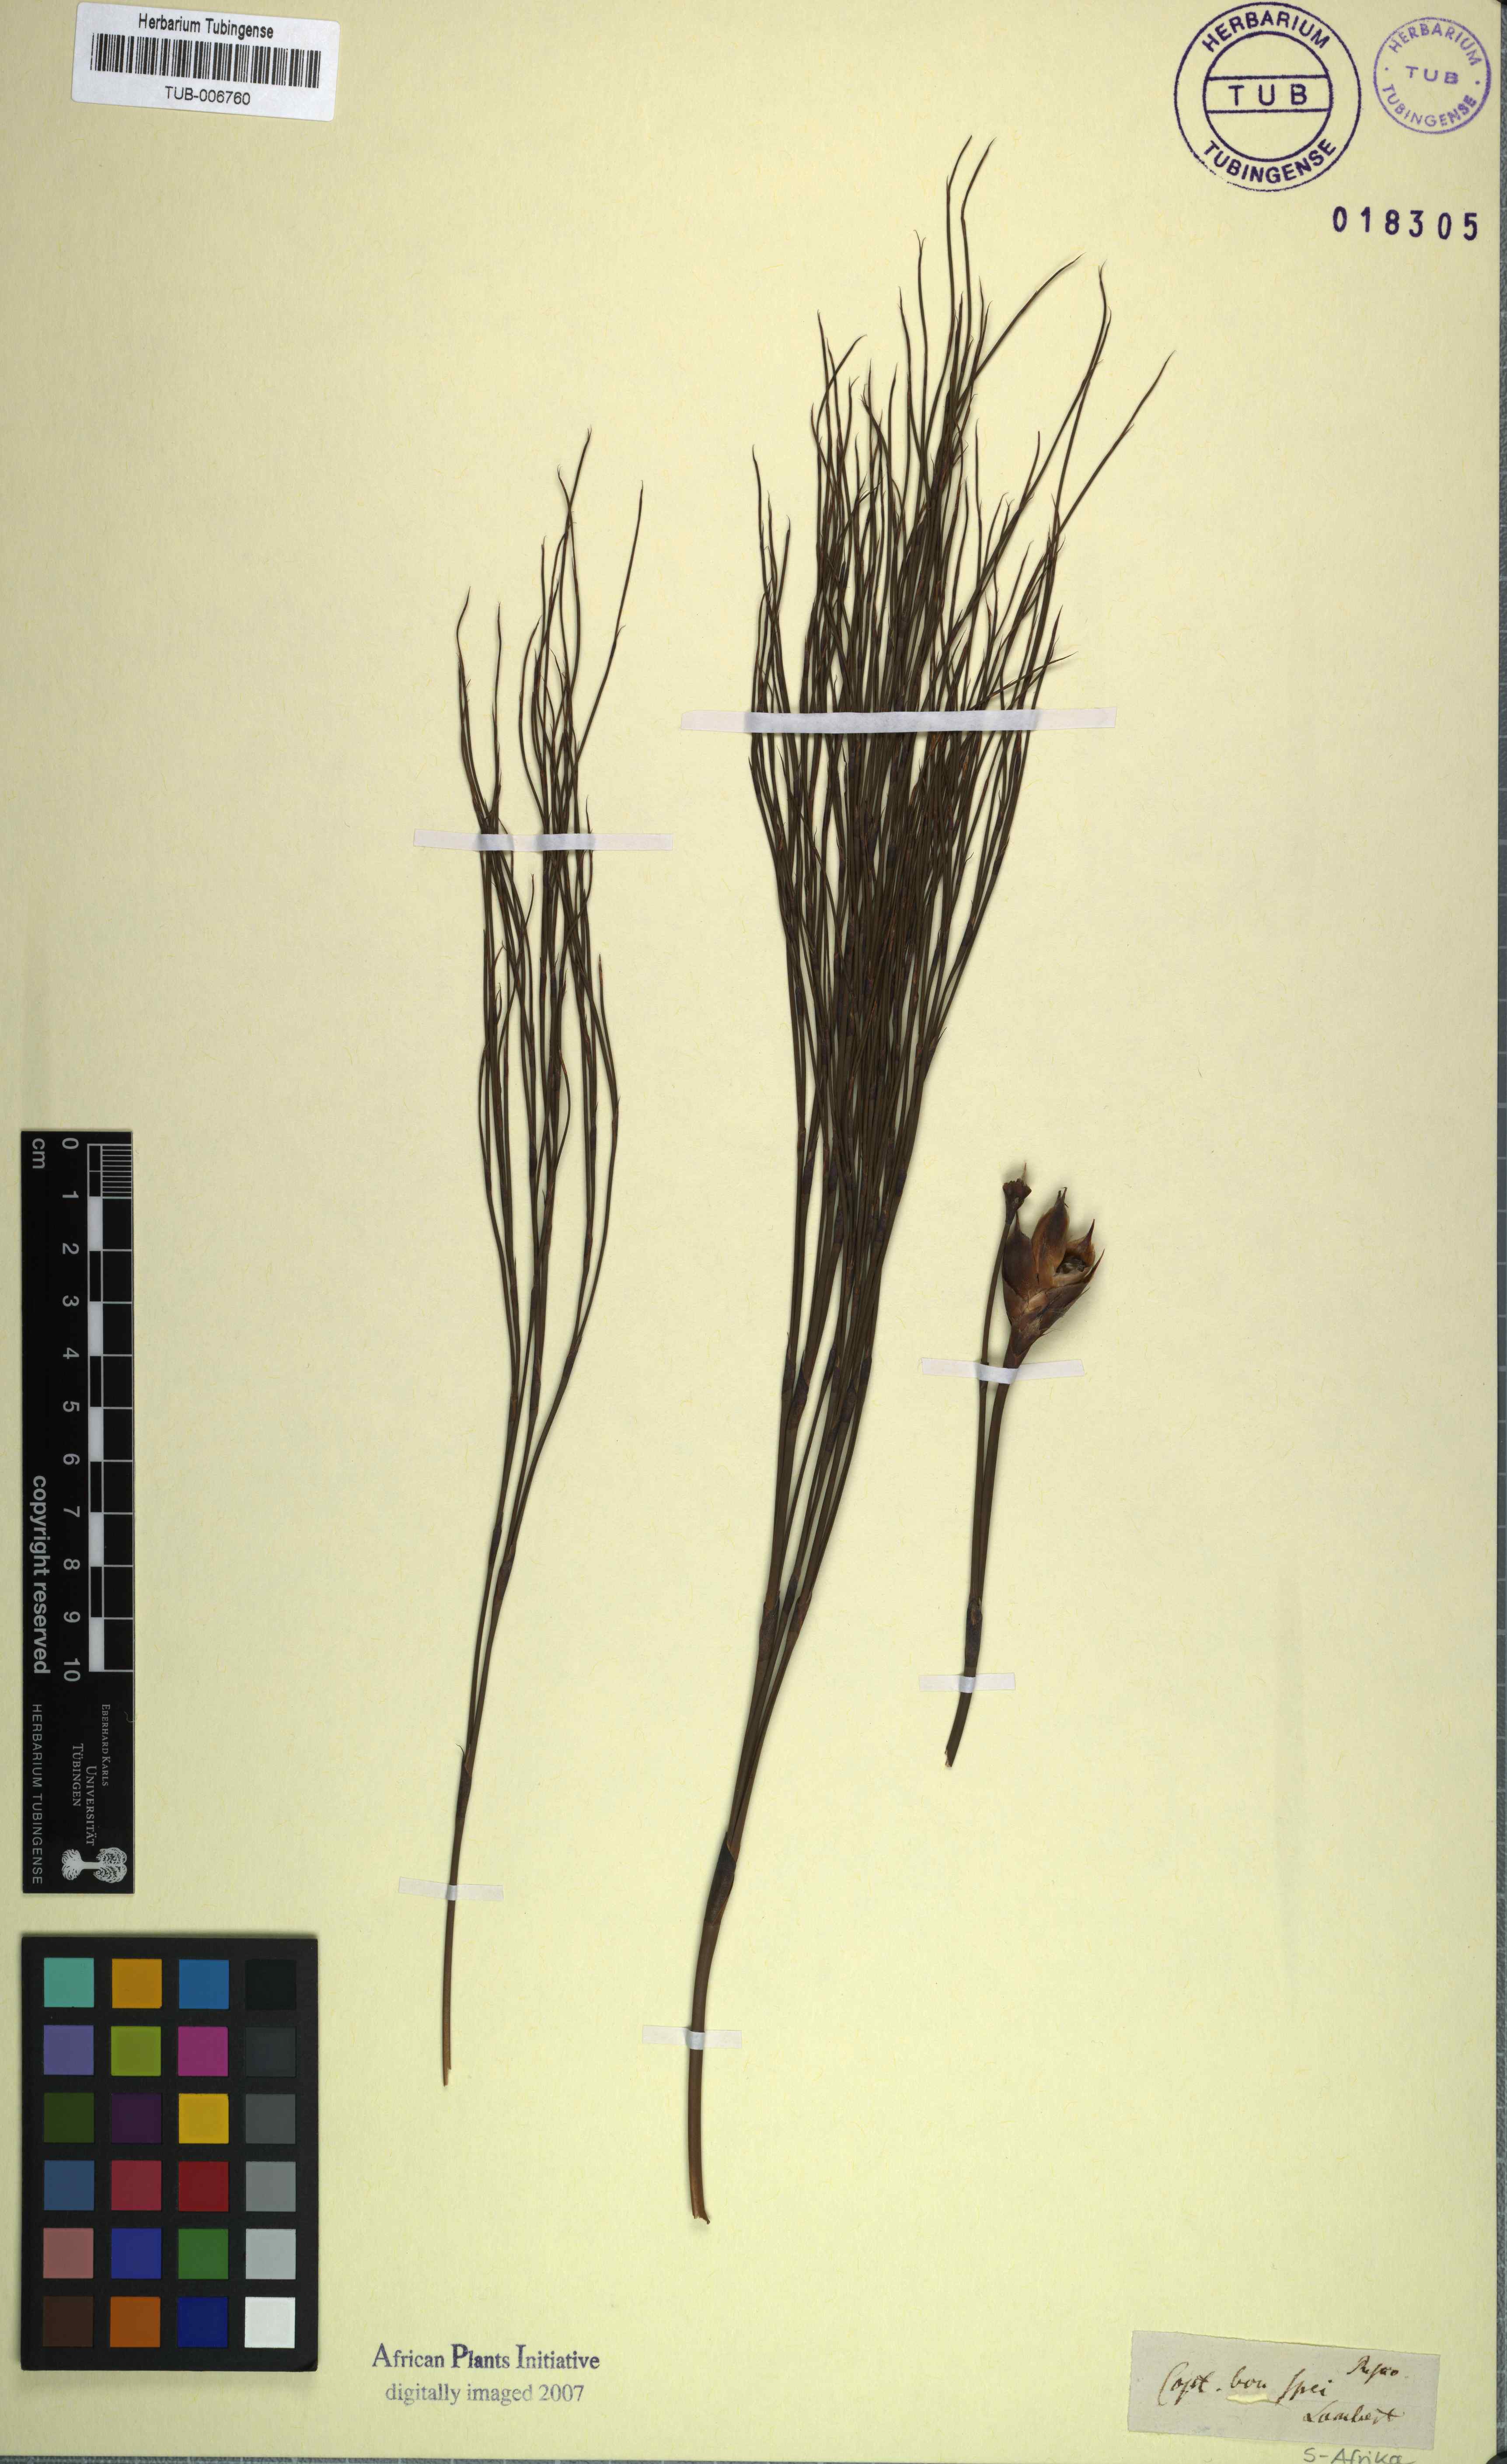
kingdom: Plantae
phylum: Tracheophyta
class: Liliopsida
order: Poales
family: Restionaceae
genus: Restio
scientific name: Restio
